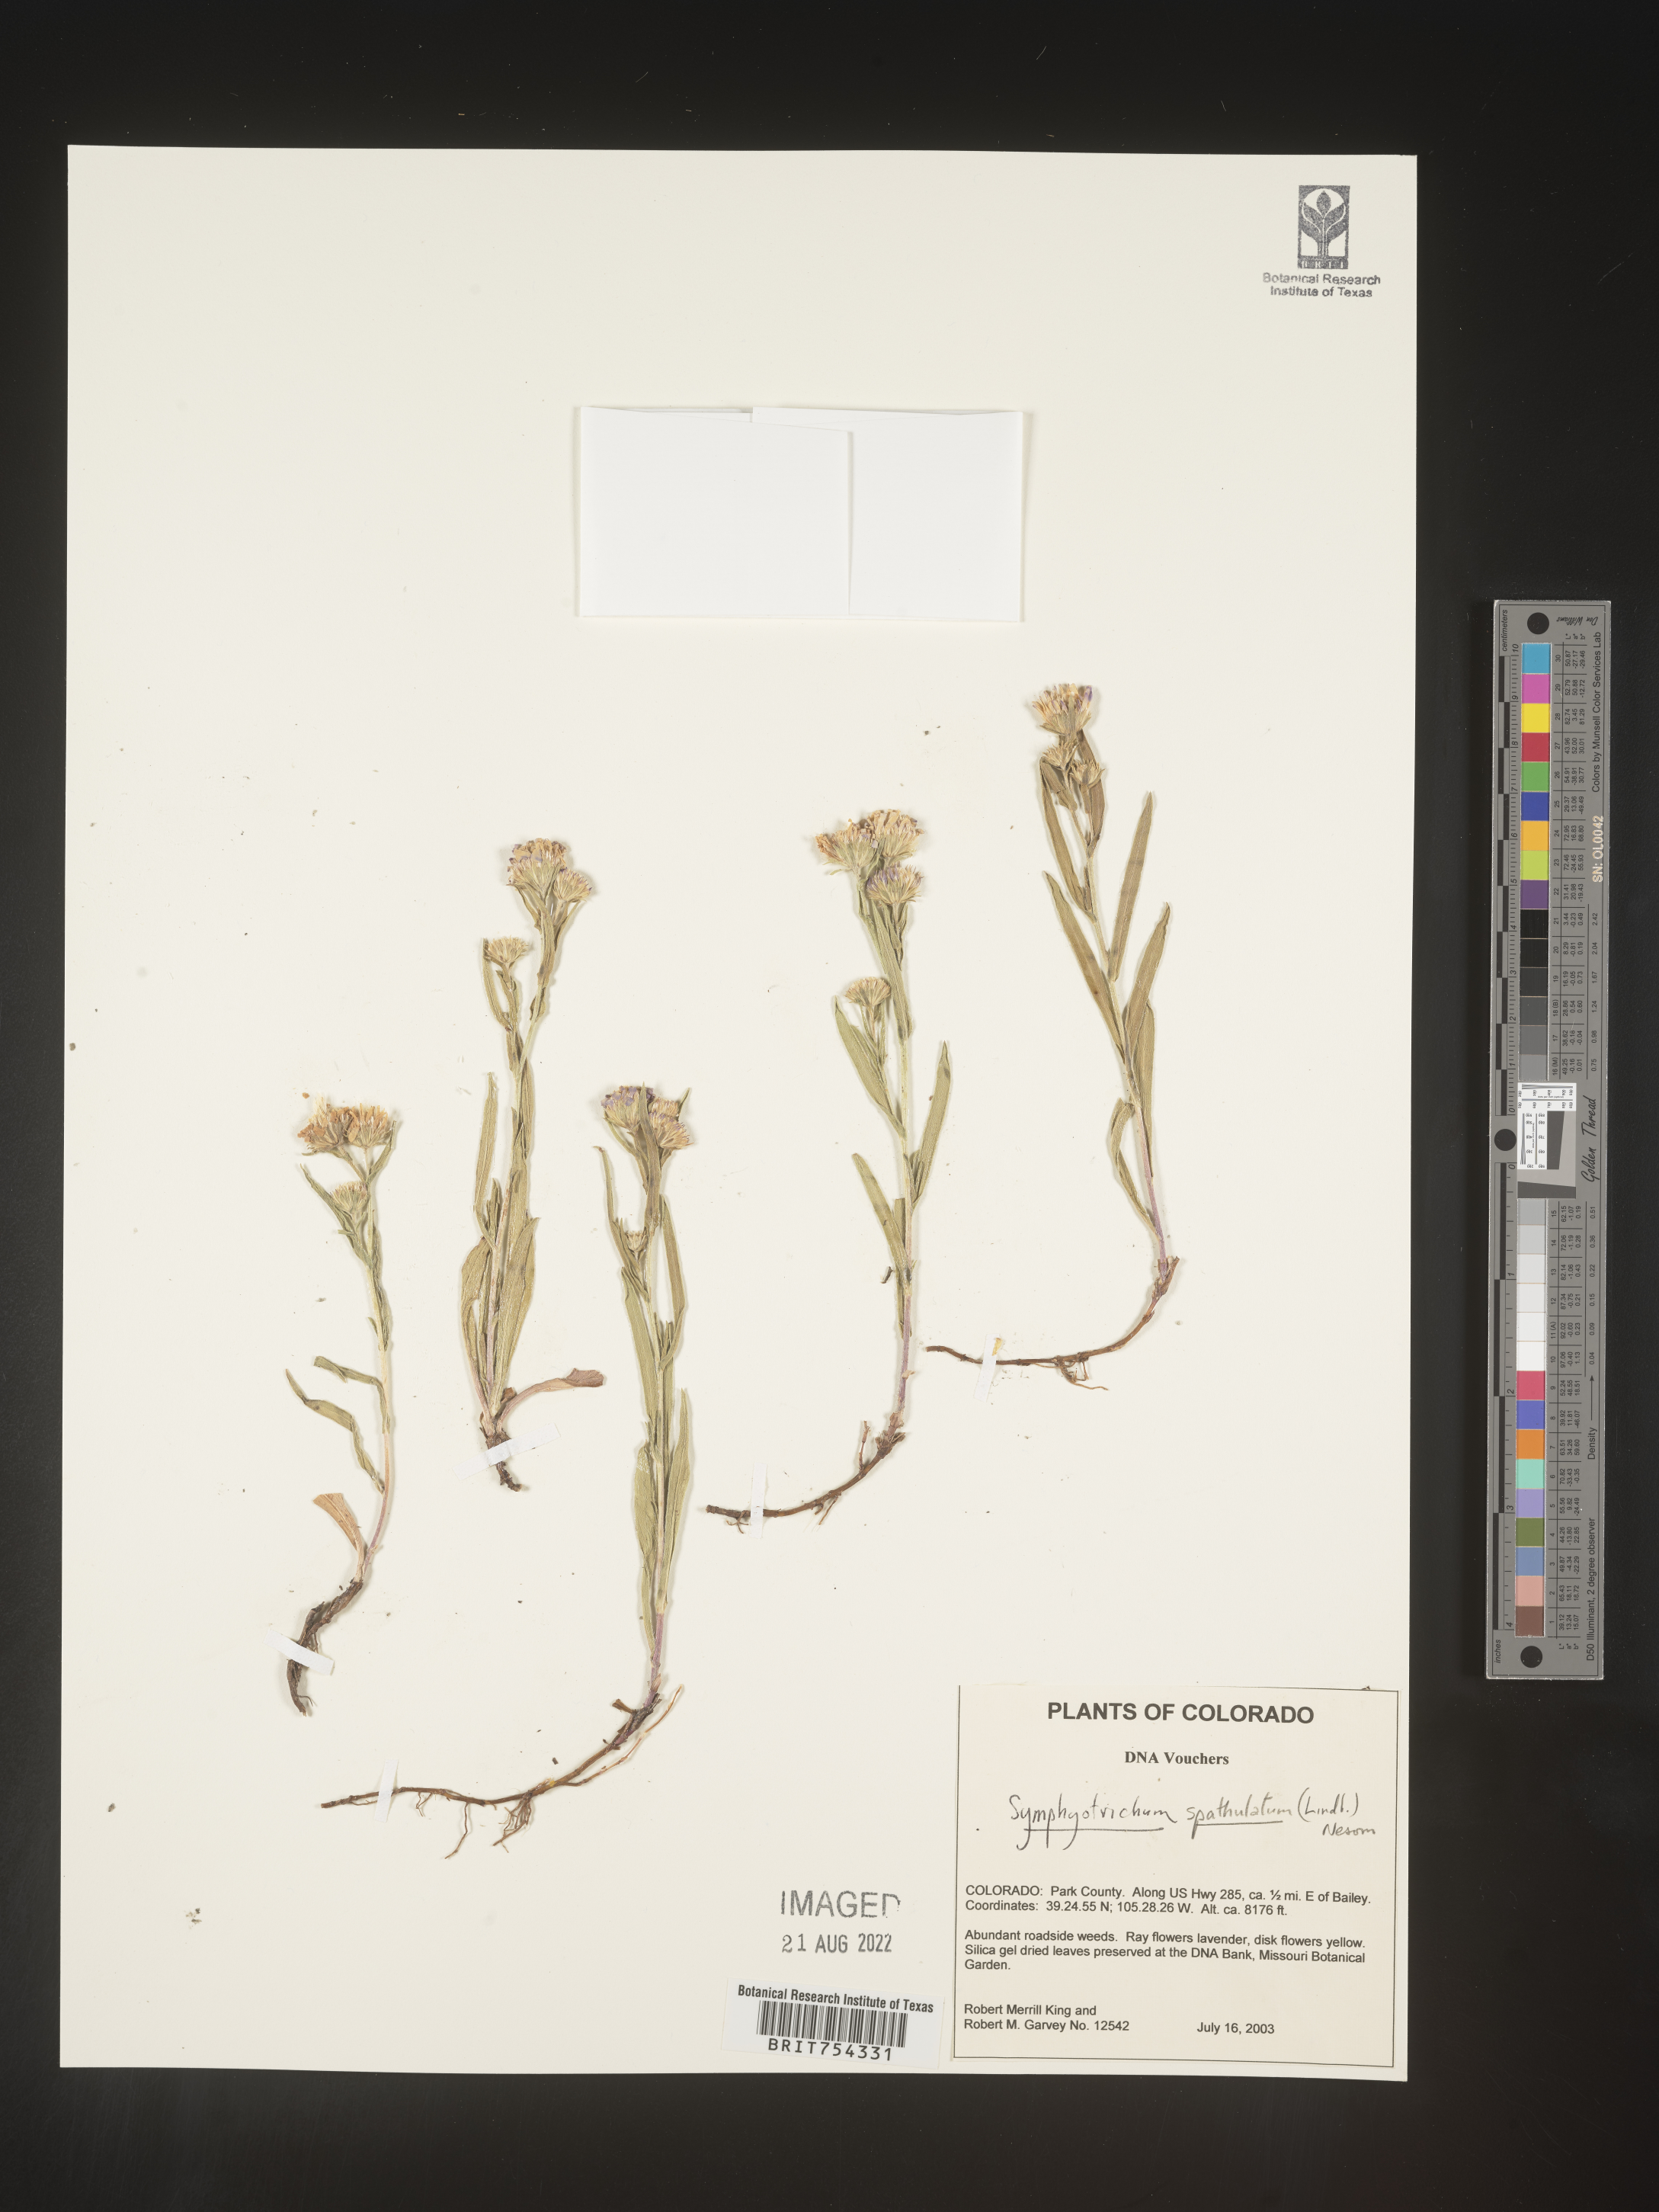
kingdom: Plantae
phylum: Tracheophyta
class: Magnoliopsida
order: Asterales
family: Asteraceae
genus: Symphyotrichum
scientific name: Symphyotrichum spathulatum
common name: Western mountain aster
